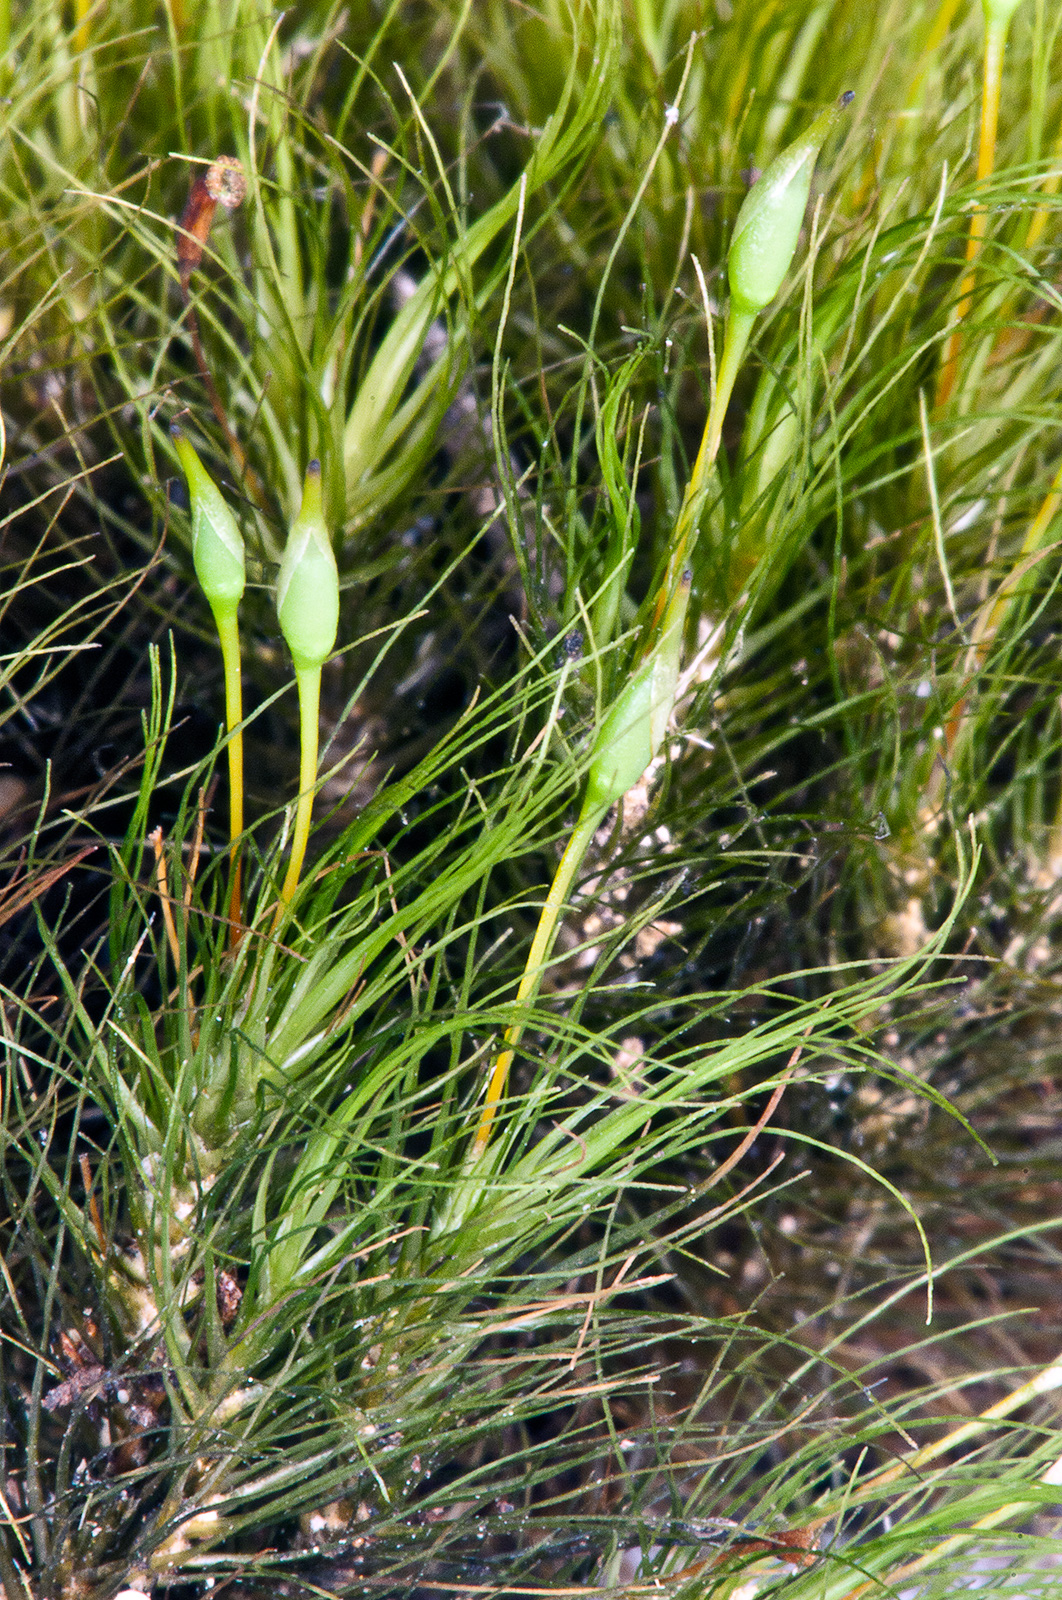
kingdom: Plantae
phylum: Bryophyta
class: Bryopsida
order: Dicranales
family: Dicranaceae
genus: Dicranoloma
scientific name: Dicranoloma menziesii
